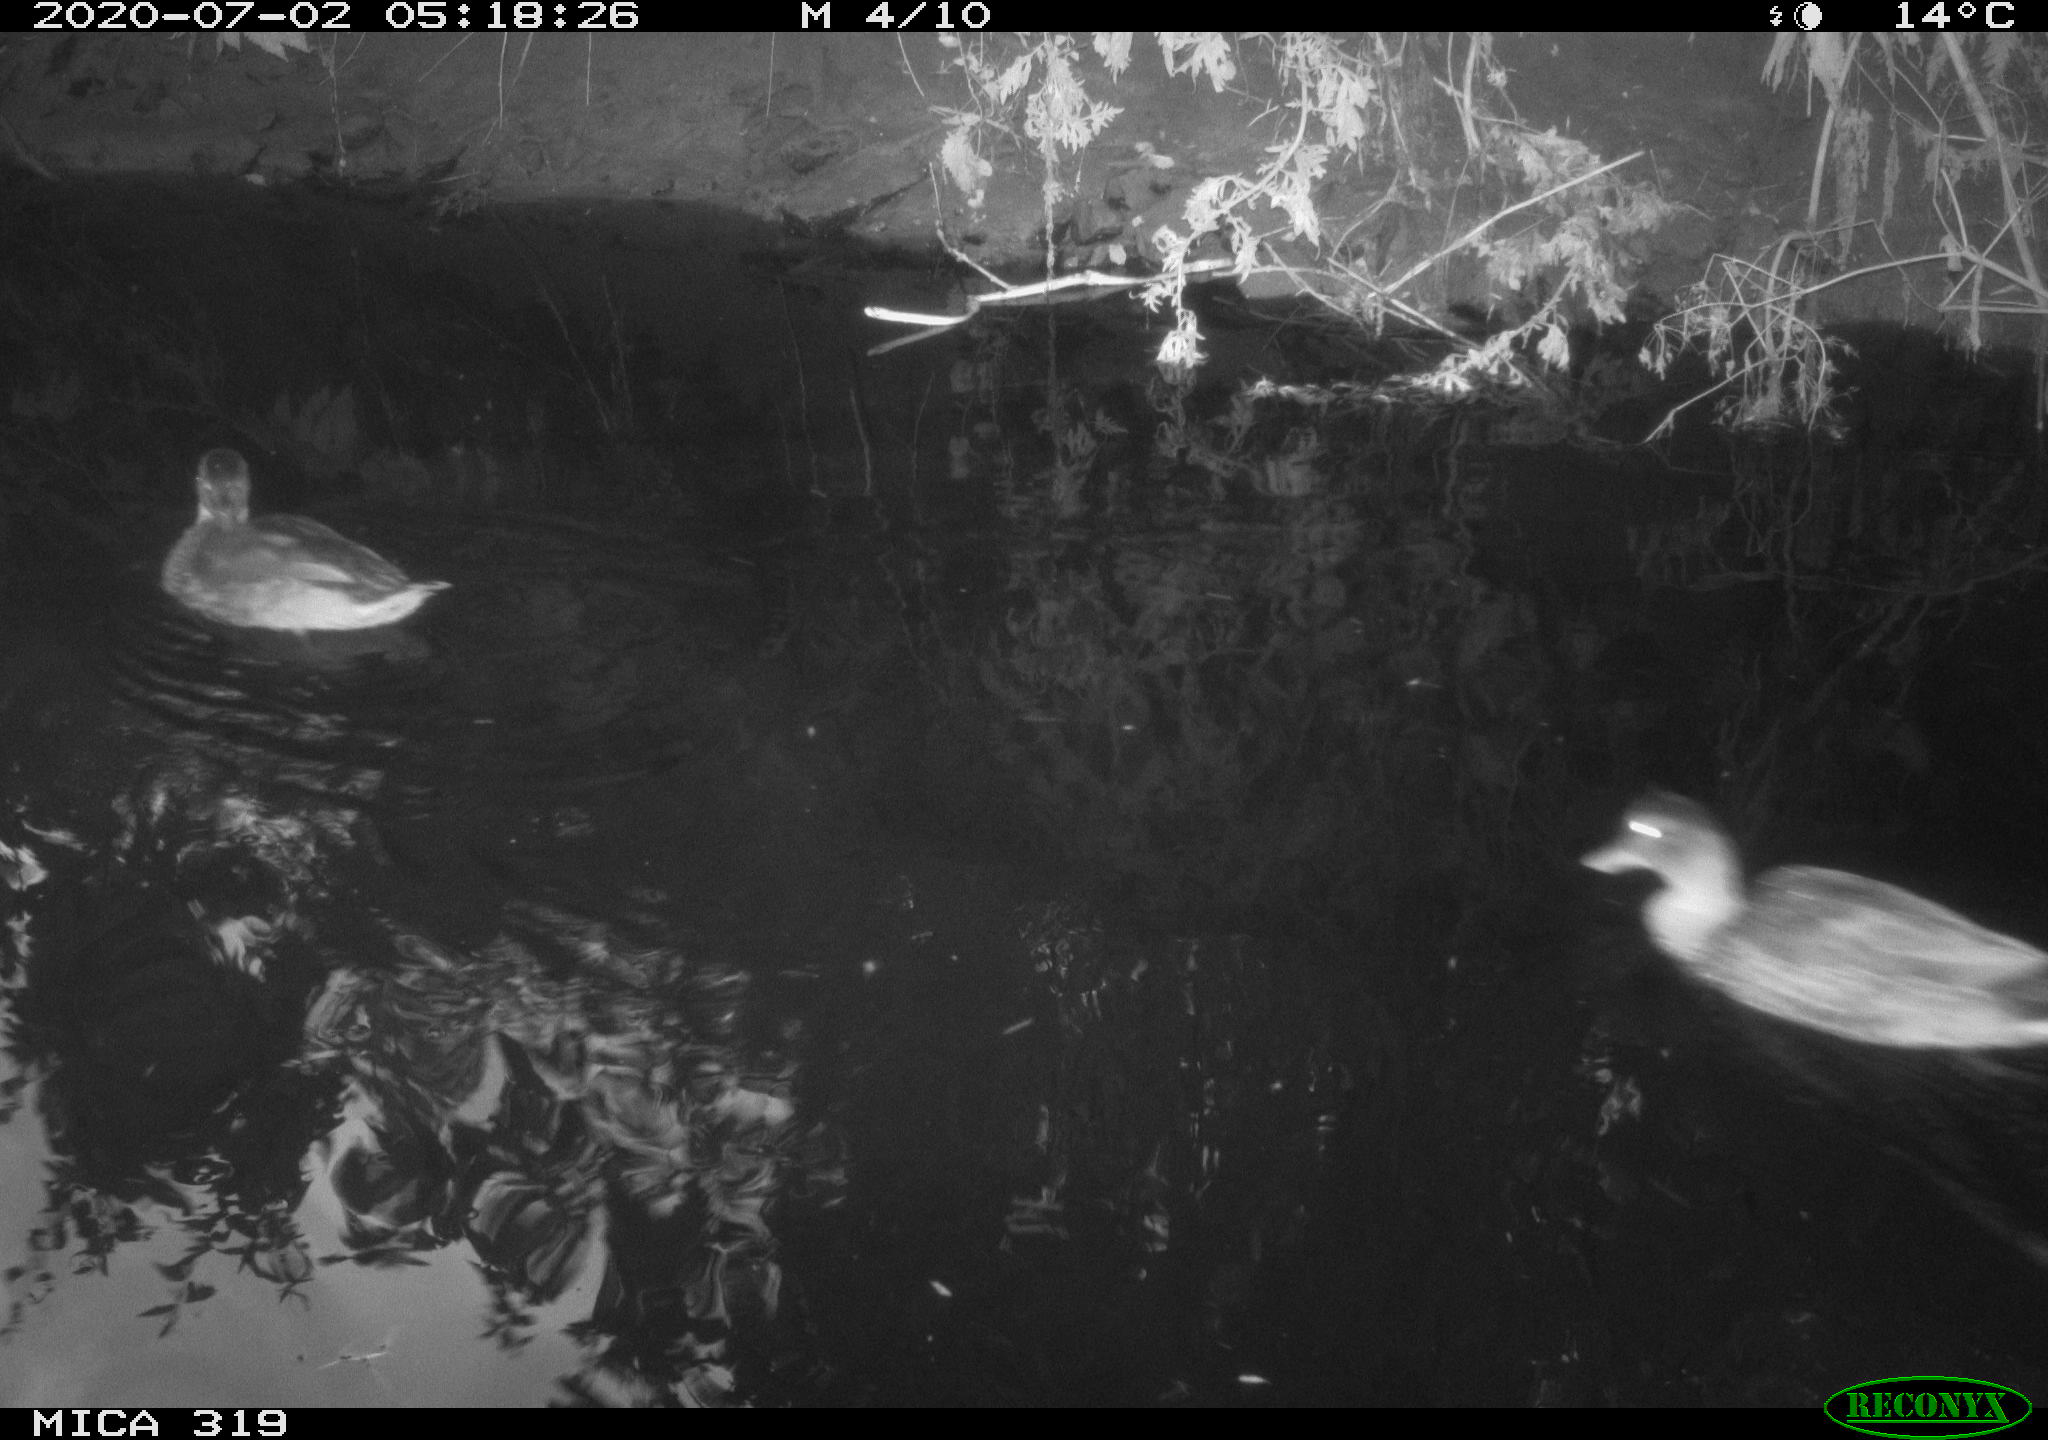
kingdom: Animalia
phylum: Chordata
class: Aves
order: Anseriformes
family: Anatidae
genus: Anas
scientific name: Anas platyrhynchos
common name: Mallard
